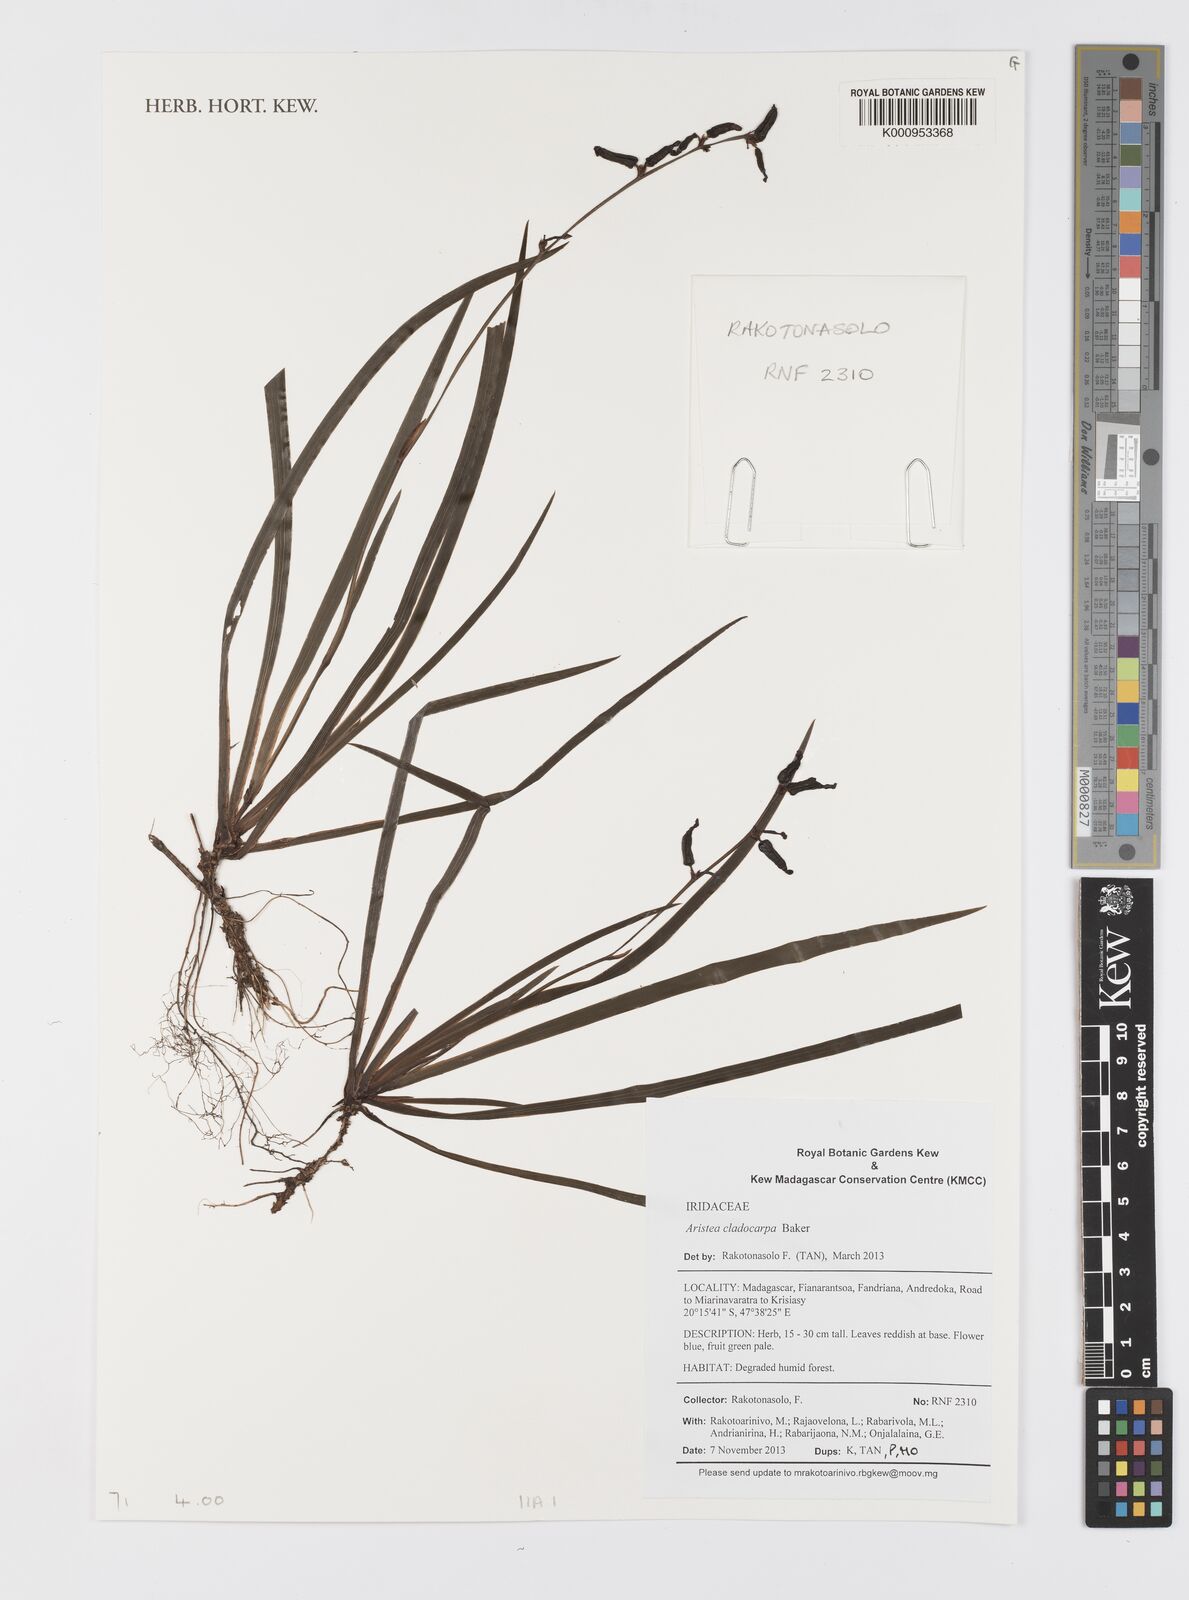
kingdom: Plantae
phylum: Tracheophyta
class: Liliopsida
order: Asparagales
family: Iridaceae
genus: Aristea
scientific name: Aristea cladocarpa
